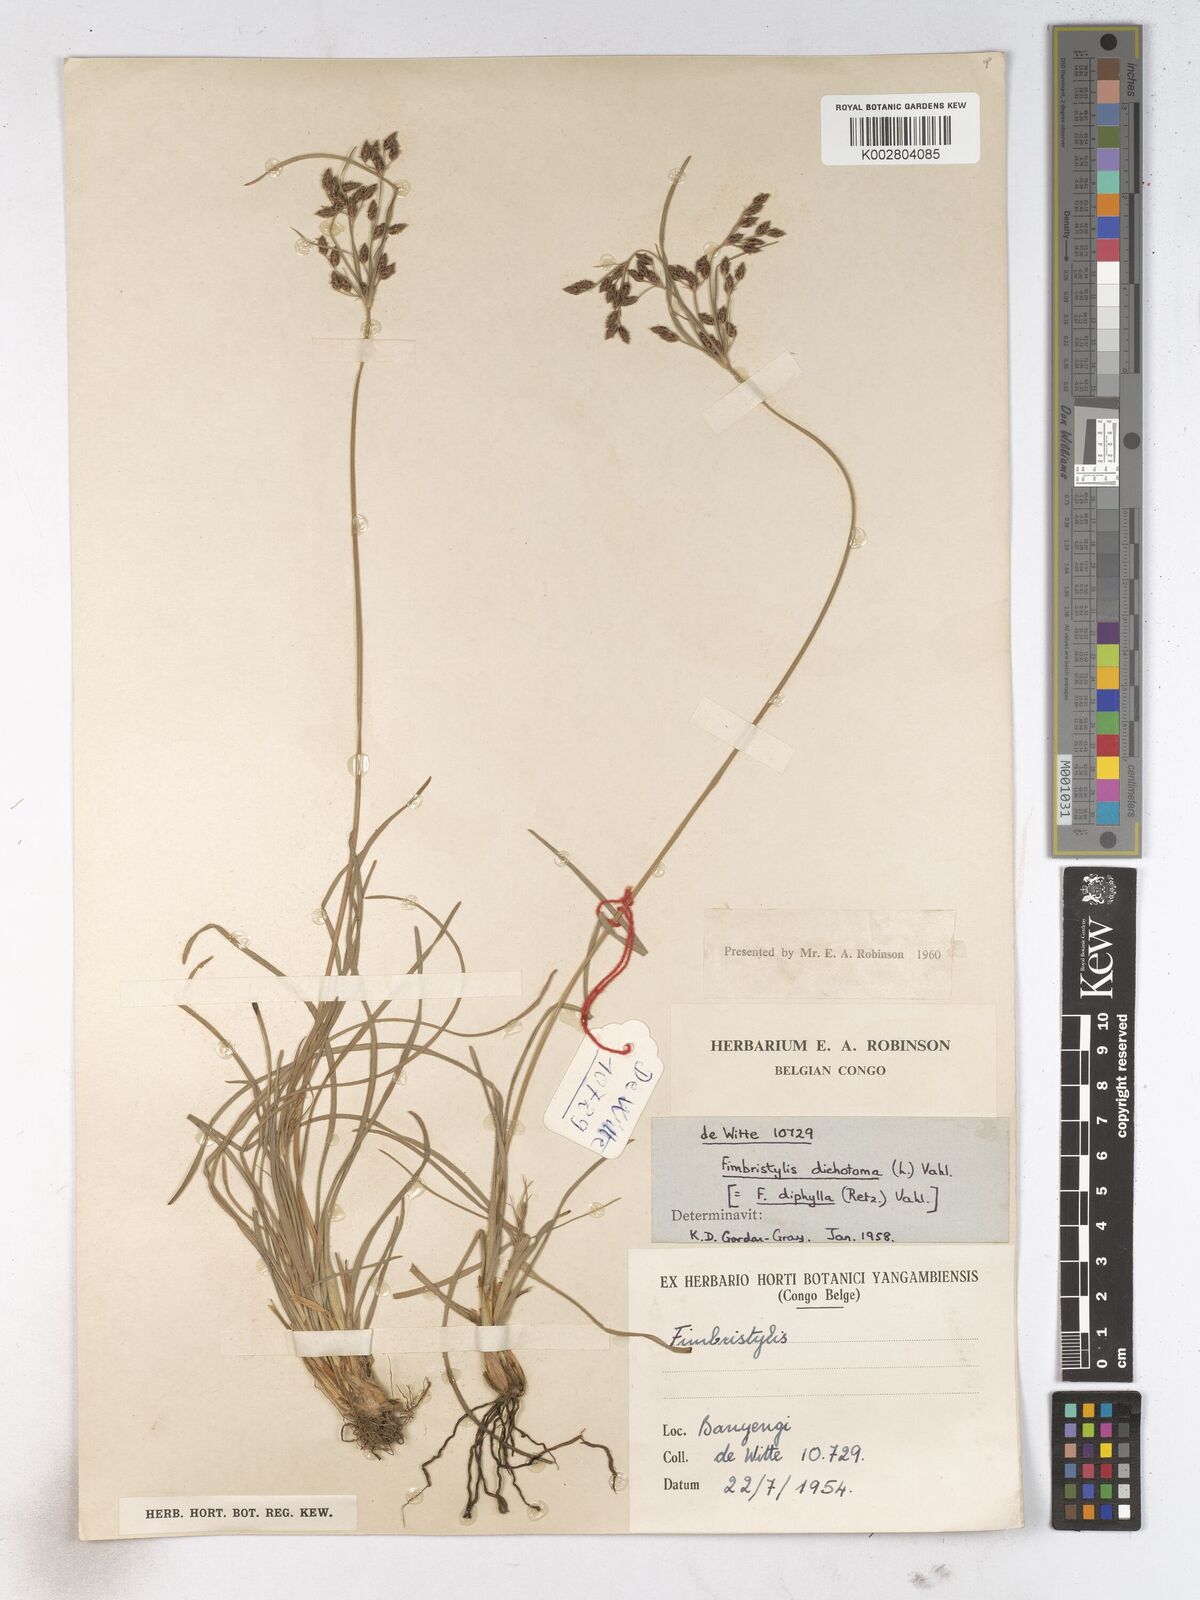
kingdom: Plantae
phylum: Tracheophyta
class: Liliopsida
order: Poales
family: Cyperaceae
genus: Fimbristylis
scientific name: Fimbristylis dichotoma
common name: Forked fimbry
